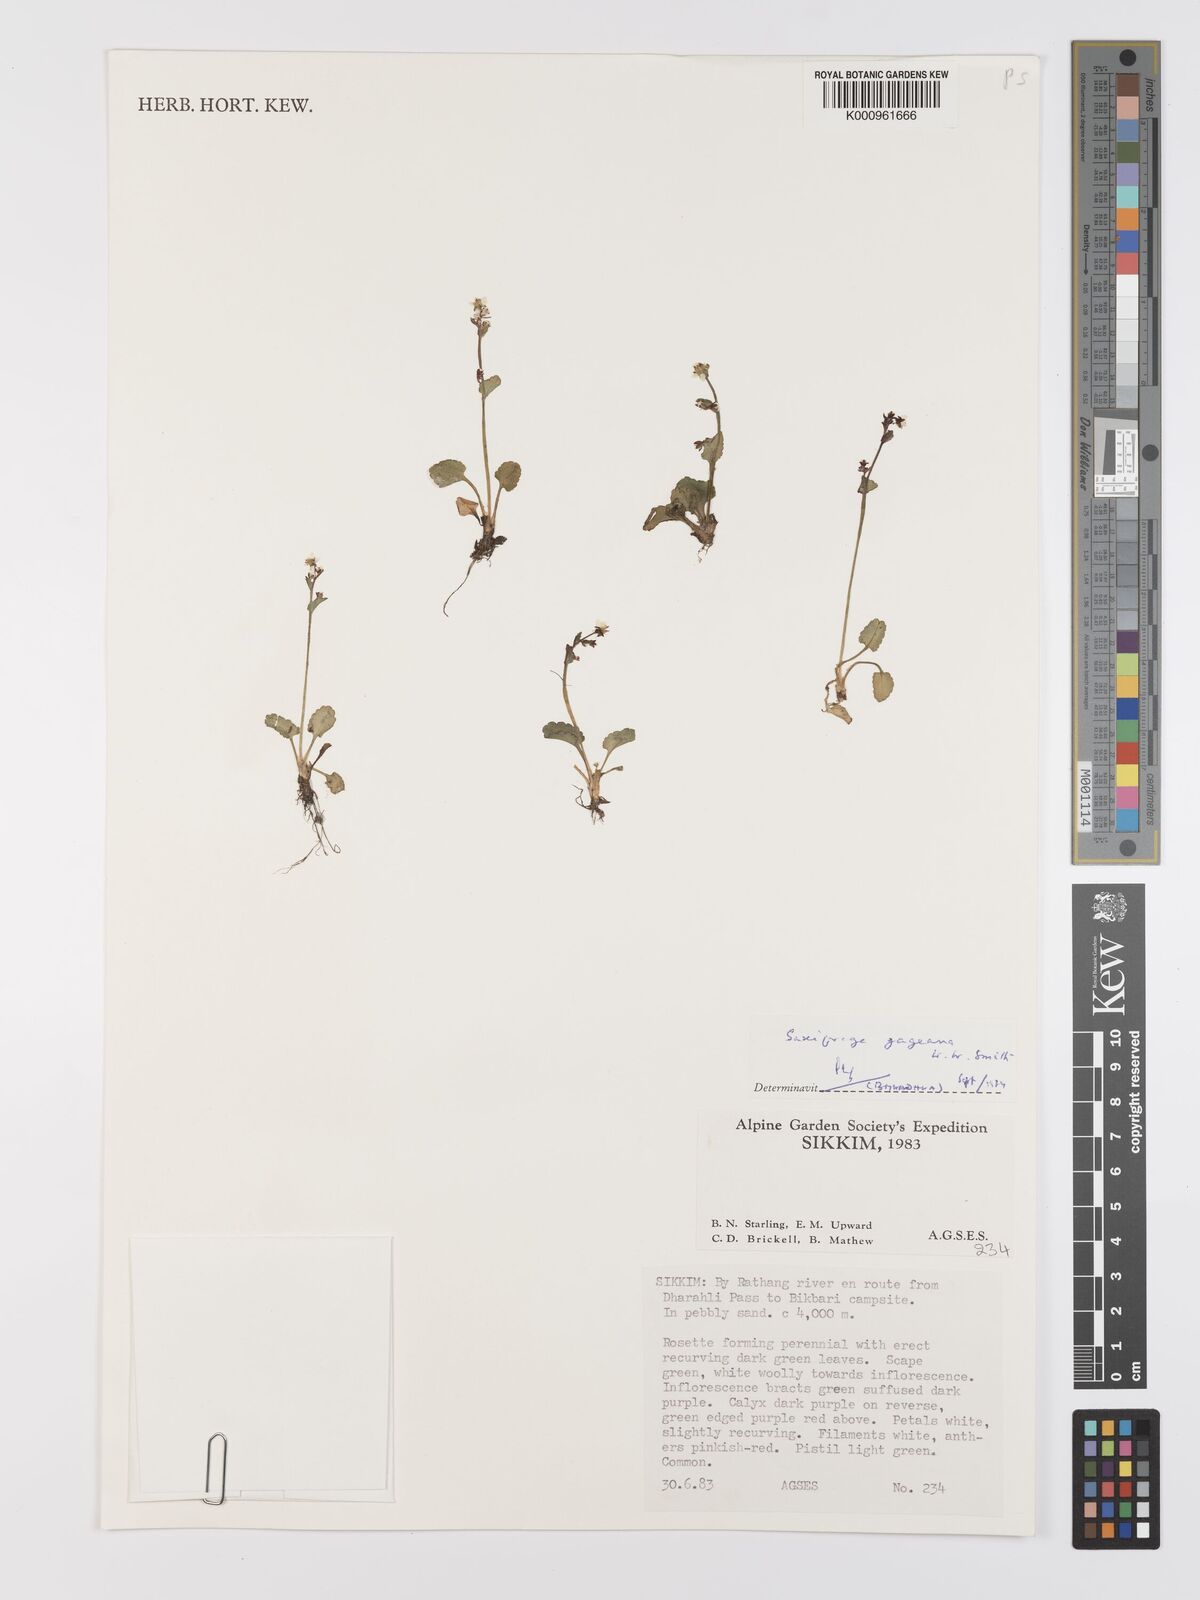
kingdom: Plantae
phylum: Tracheophyta
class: Magnoliopsida
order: Saxifragales
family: Saxifragaceae
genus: Micranthes
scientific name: Micranthes gageana
